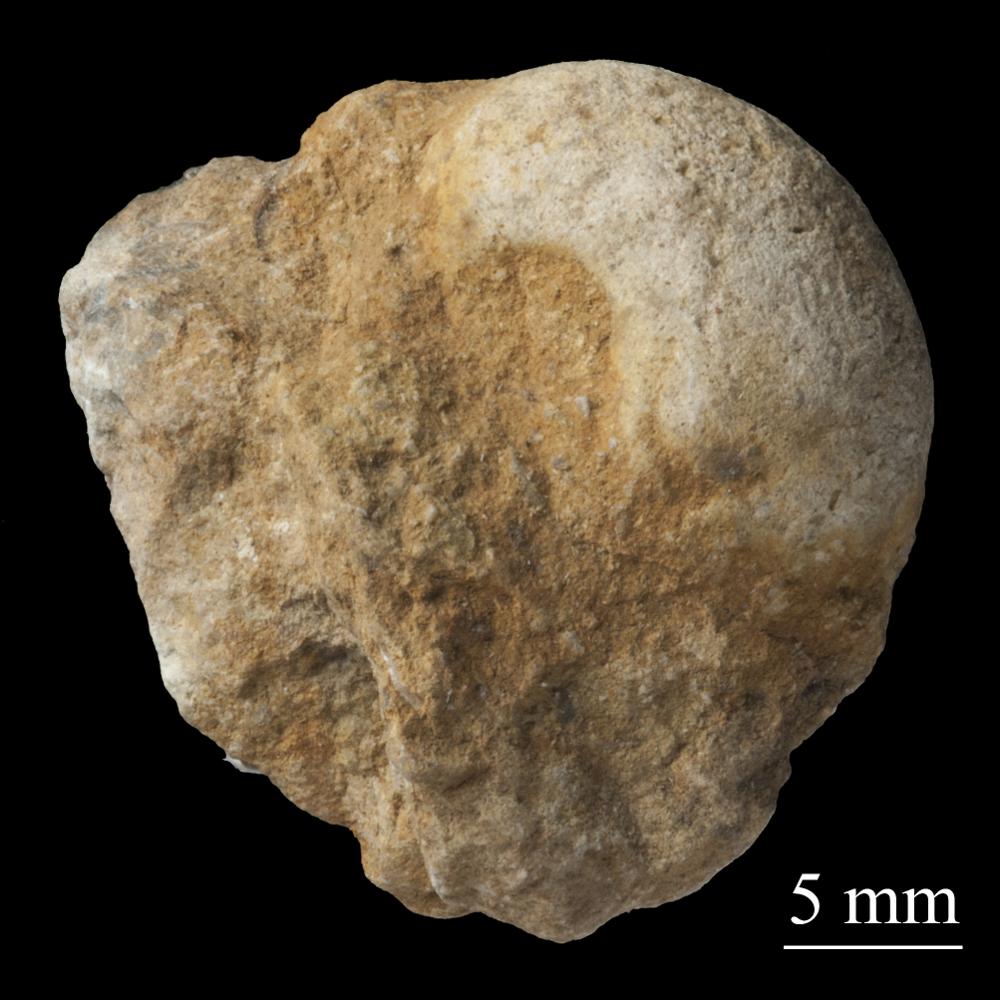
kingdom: Animalia
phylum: Mollusca
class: Gastropoda
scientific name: Gastropoda
